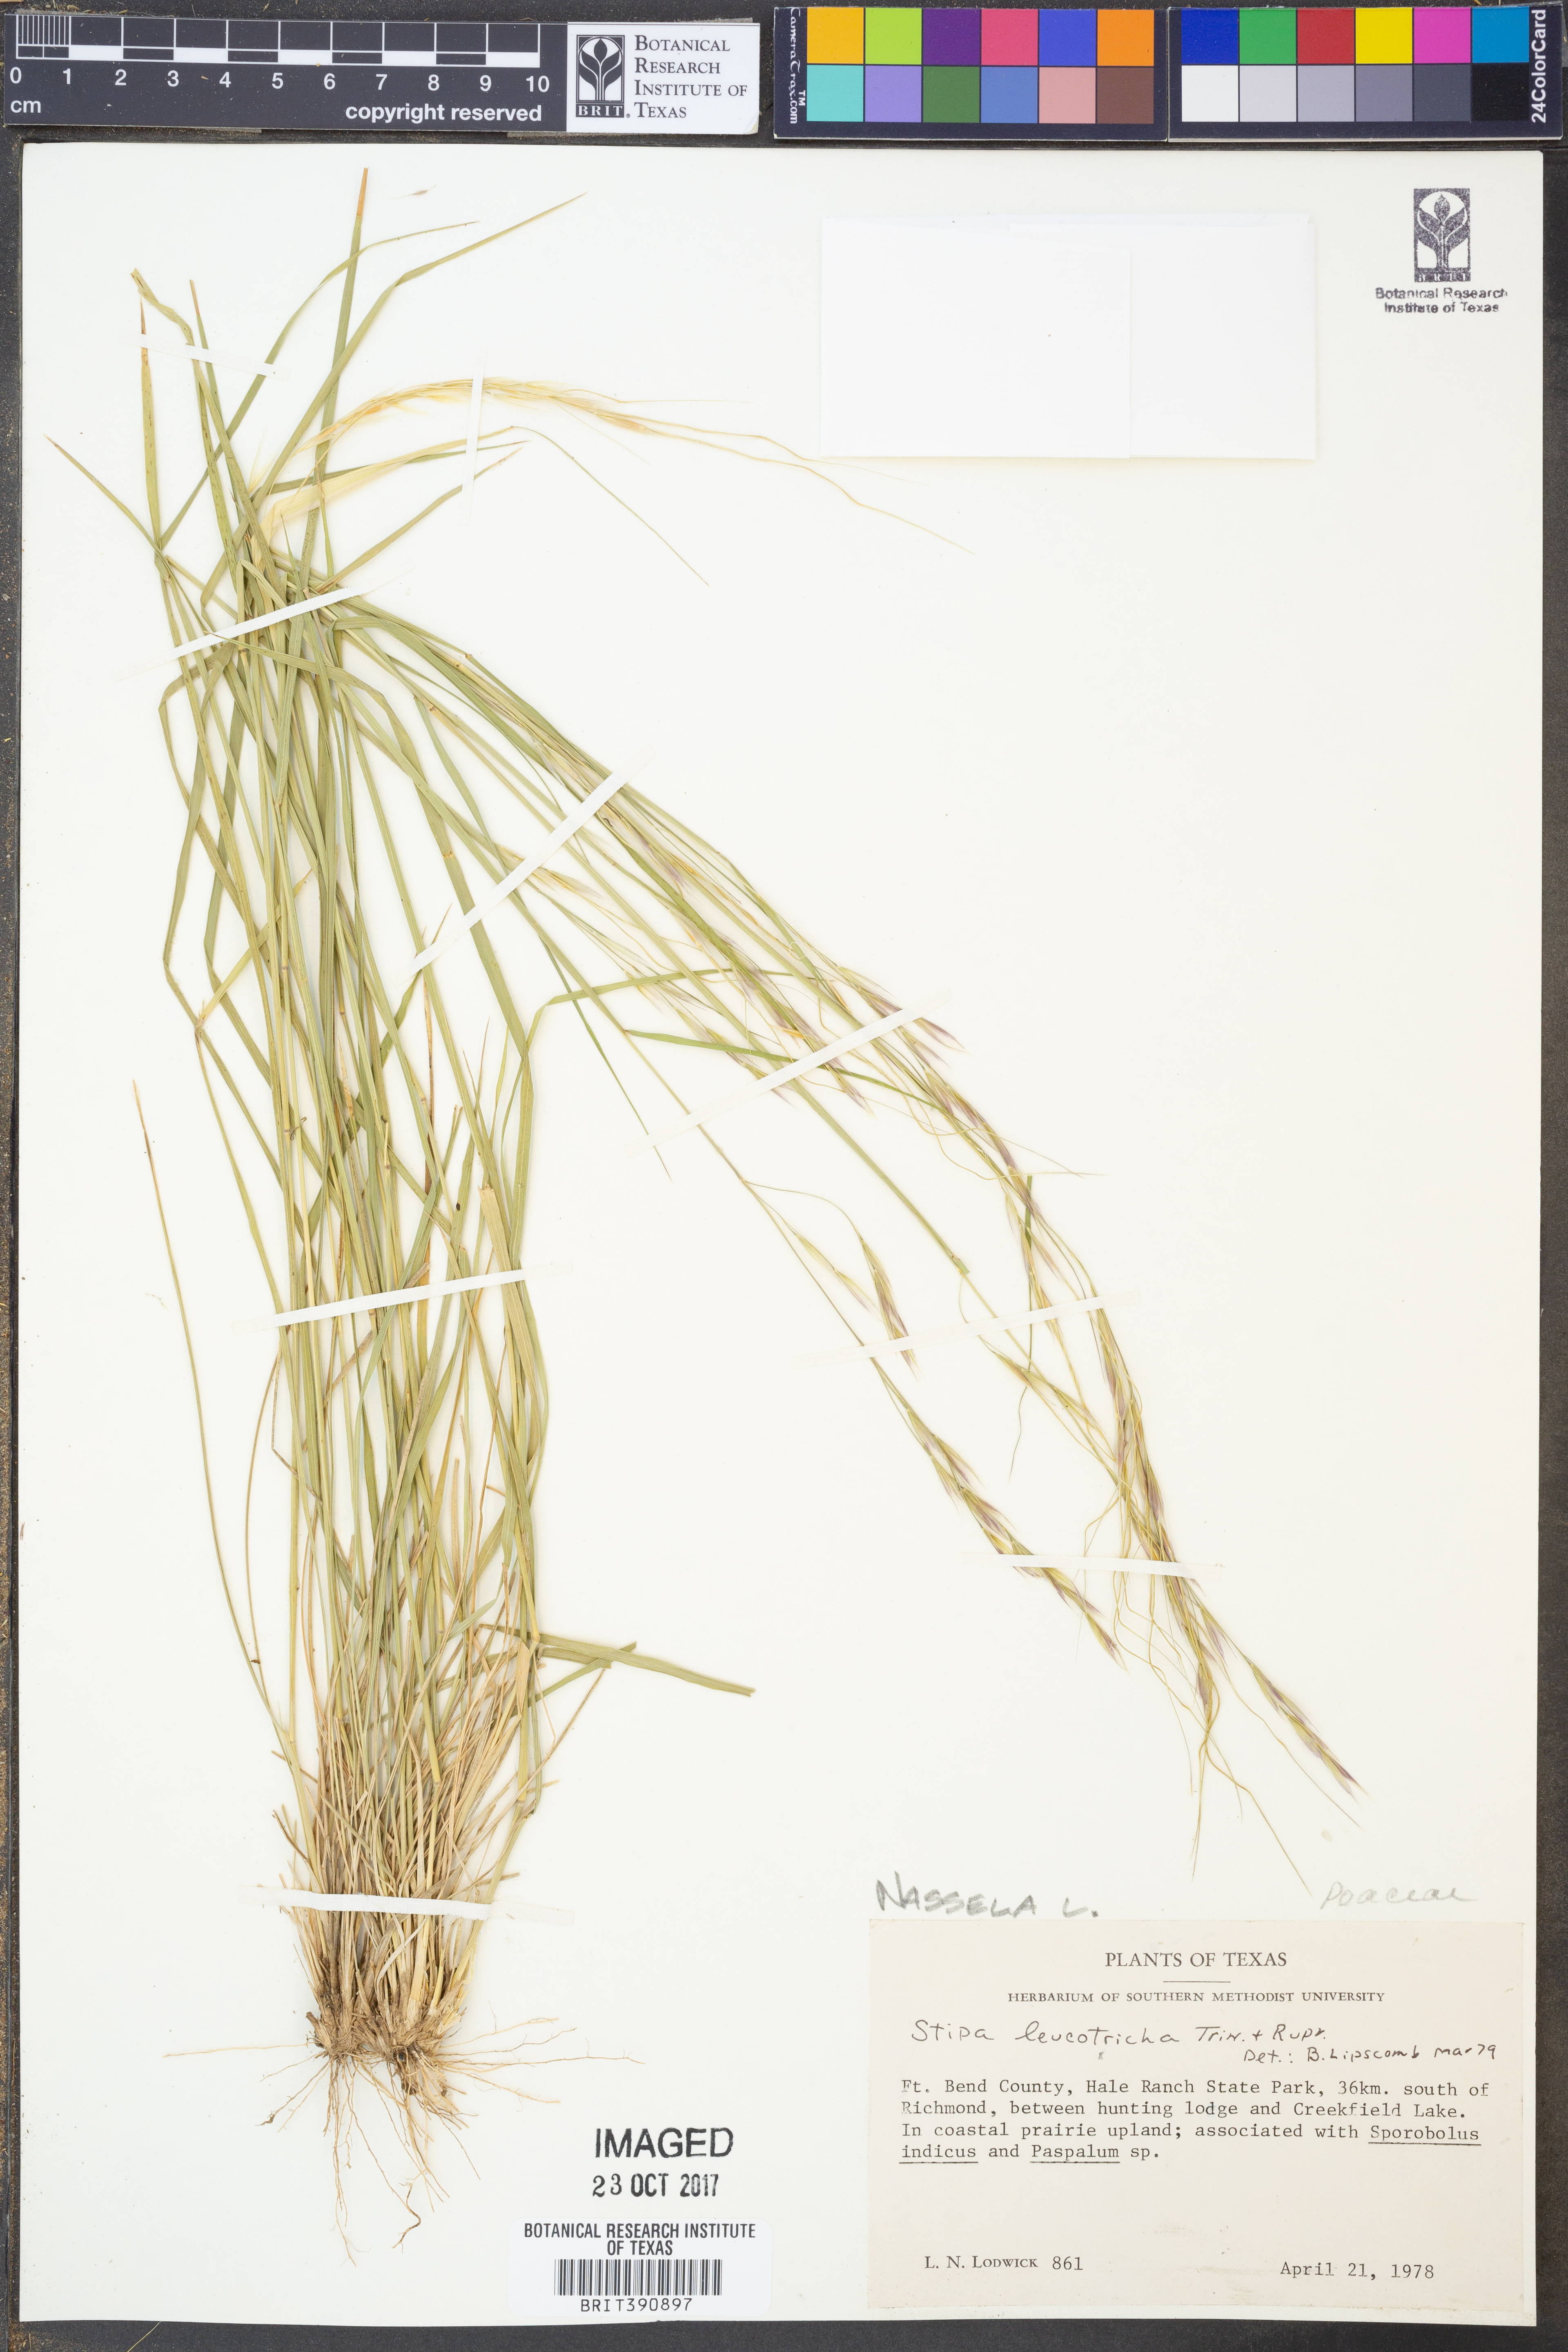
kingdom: Plantae
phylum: Tracheophyta
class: Liliopsida
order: Poales
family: Poaceae
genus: Nassella
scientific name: Nassella leucotricha
